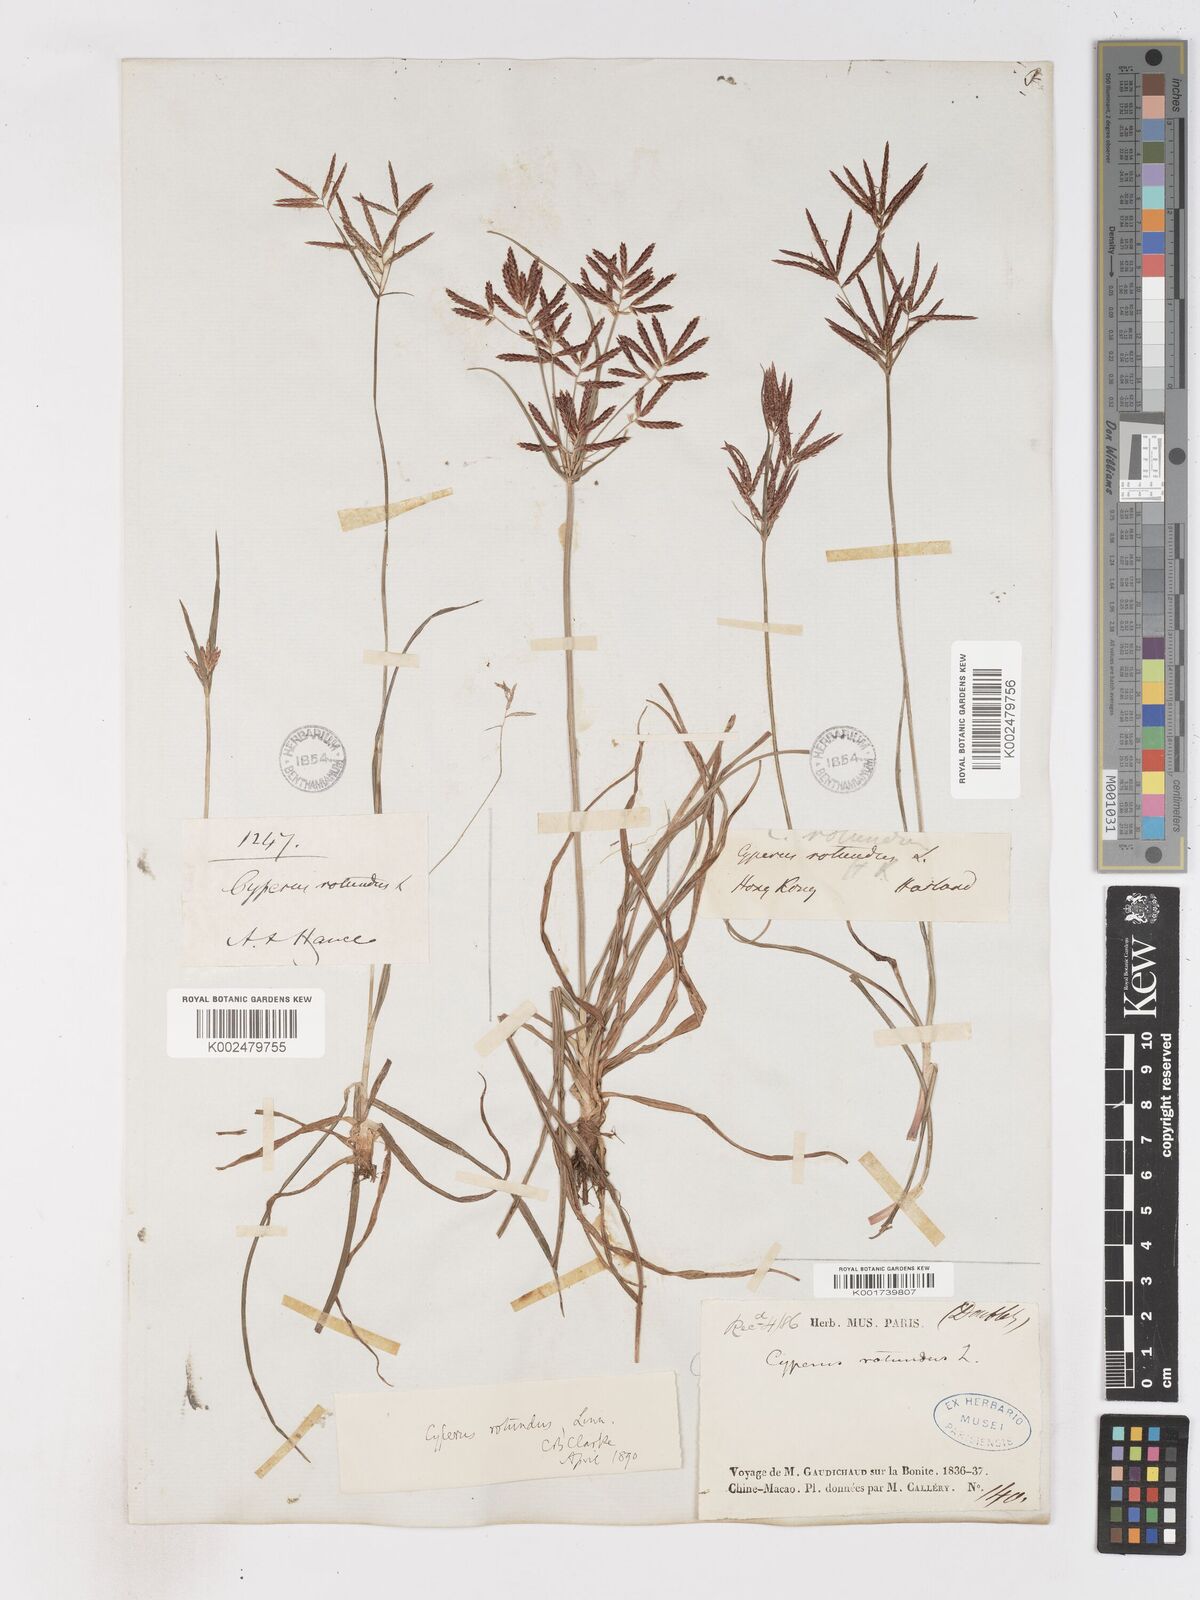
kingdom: Plantae
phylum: Tracheophyta
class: Liliopsida
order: Poales
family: Cyperaceae
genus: Cyperus
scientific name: Cyperus rotundus
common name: Nutgrass
